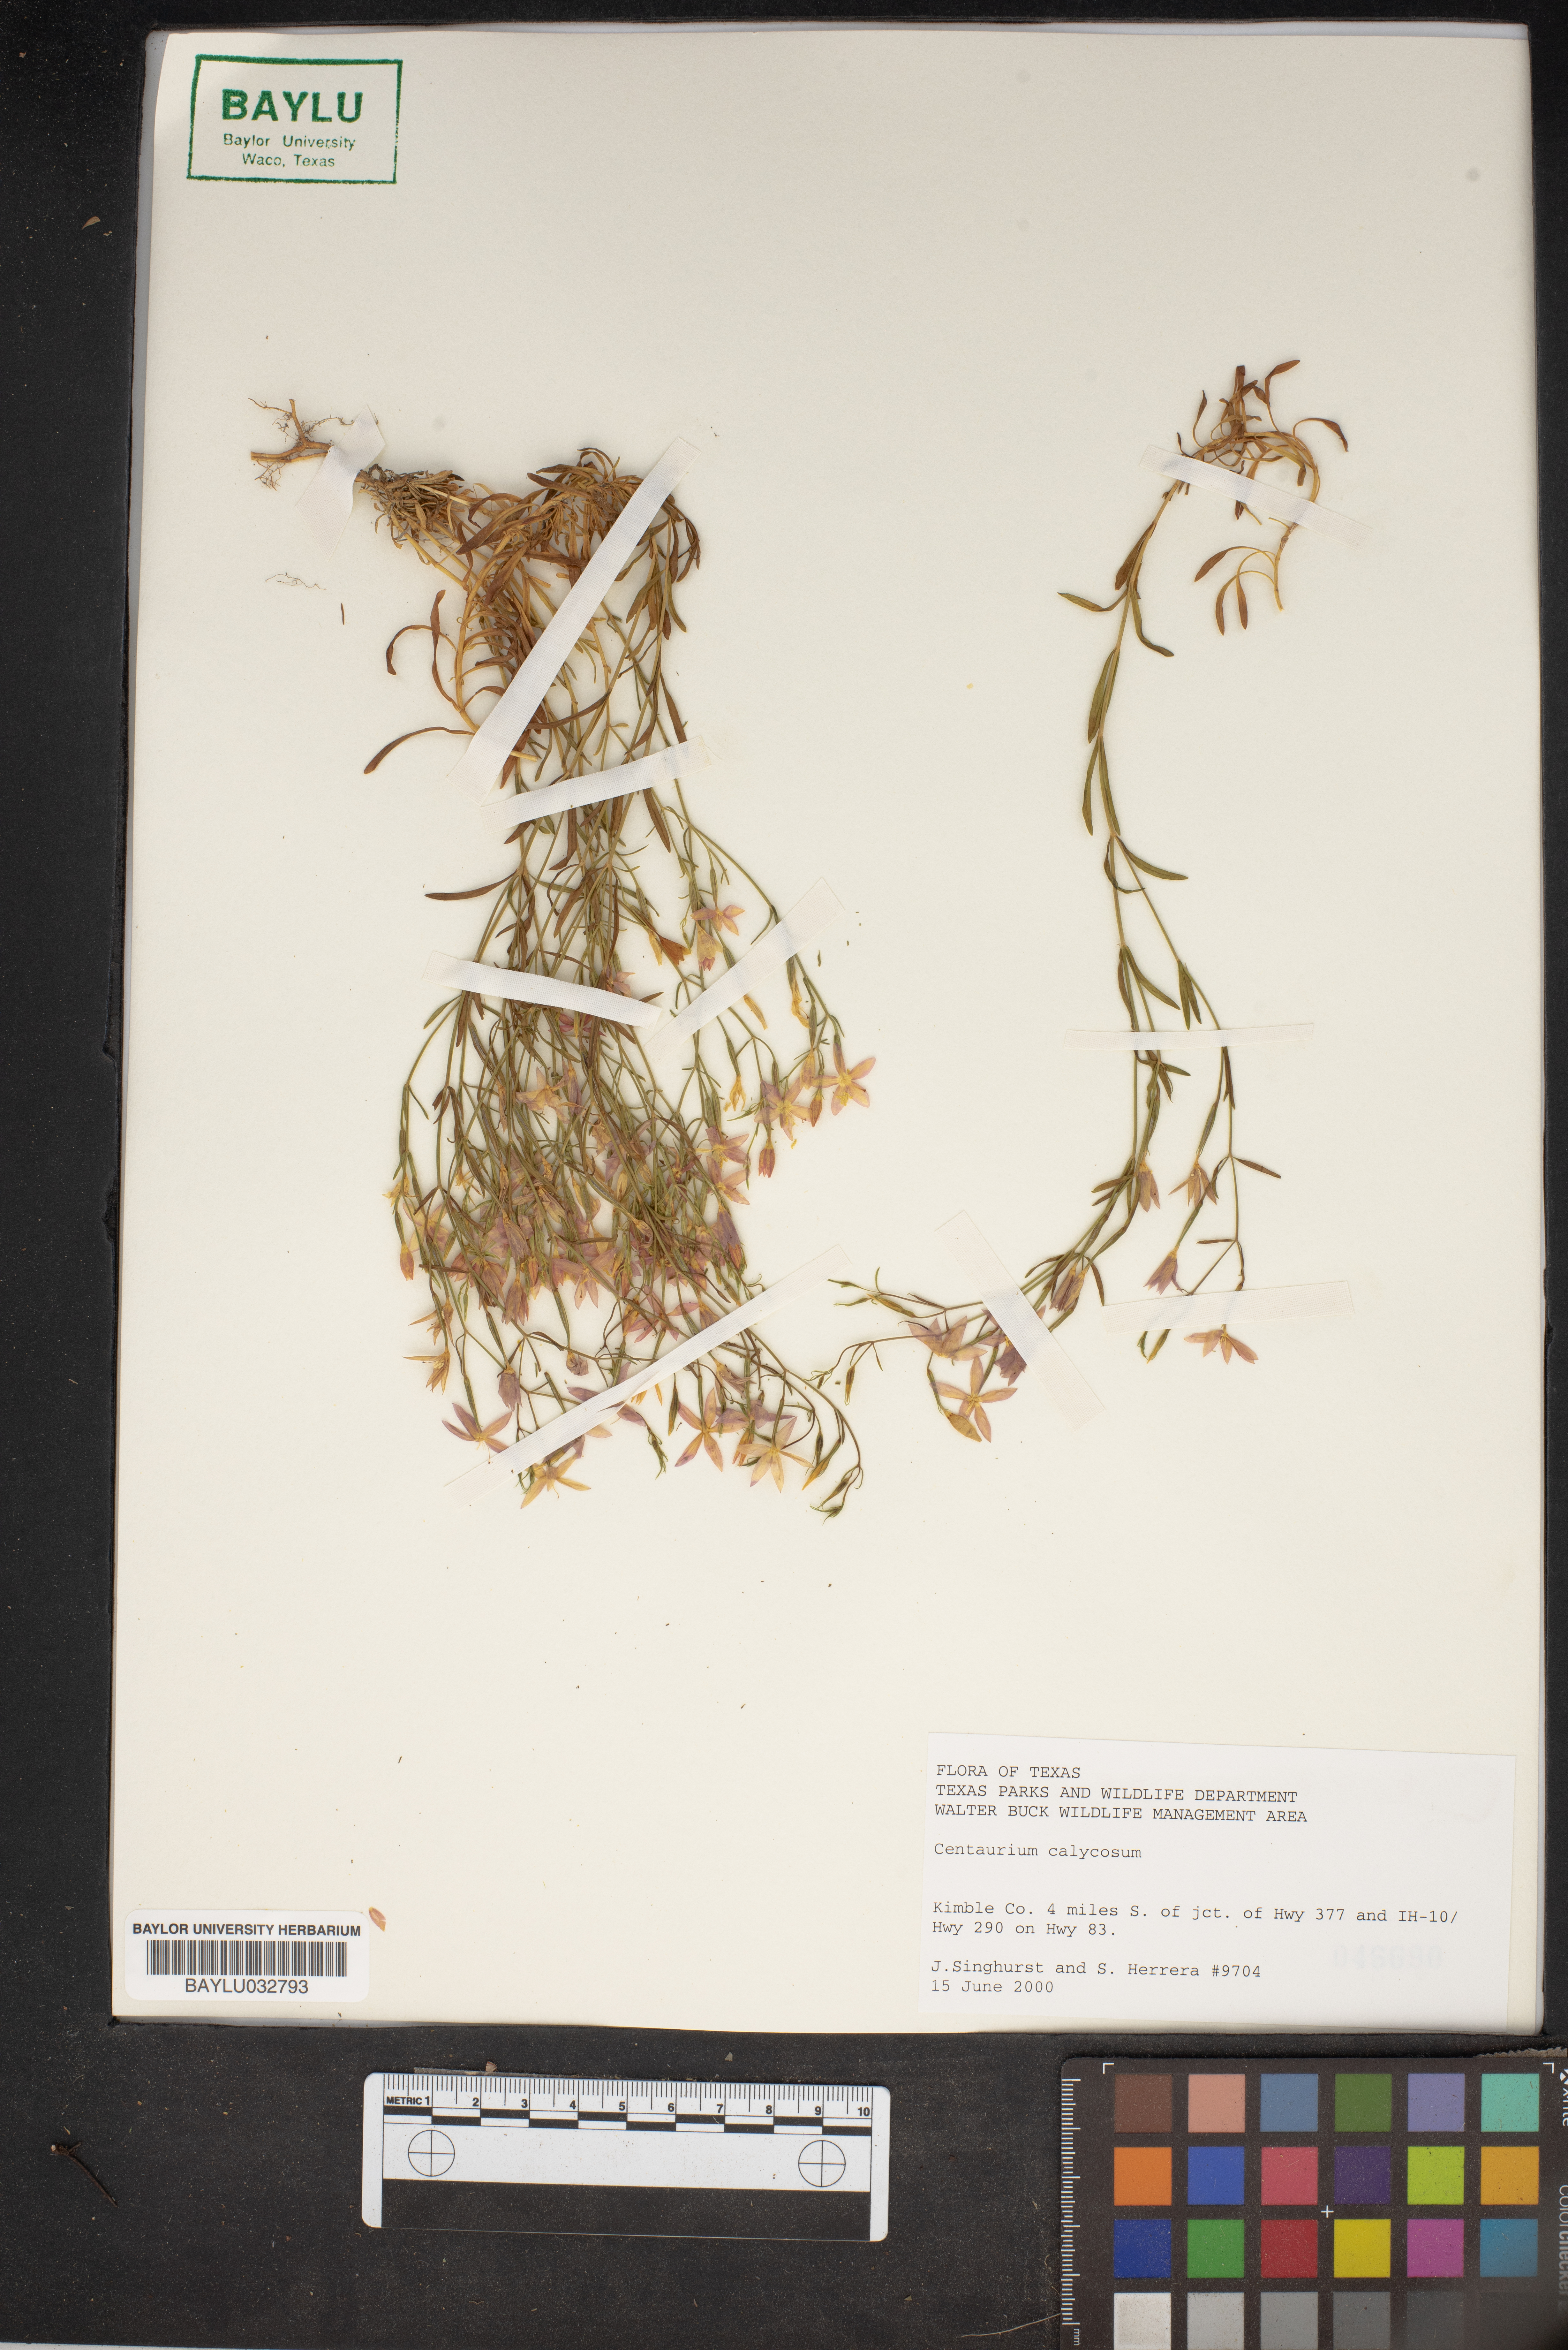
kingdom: Plantae
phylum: Tracheophyta
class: Magnoliopsida
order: Gentianales
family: Gentianaceae
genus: Zeltnera
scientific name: Zeltnera calycosa
